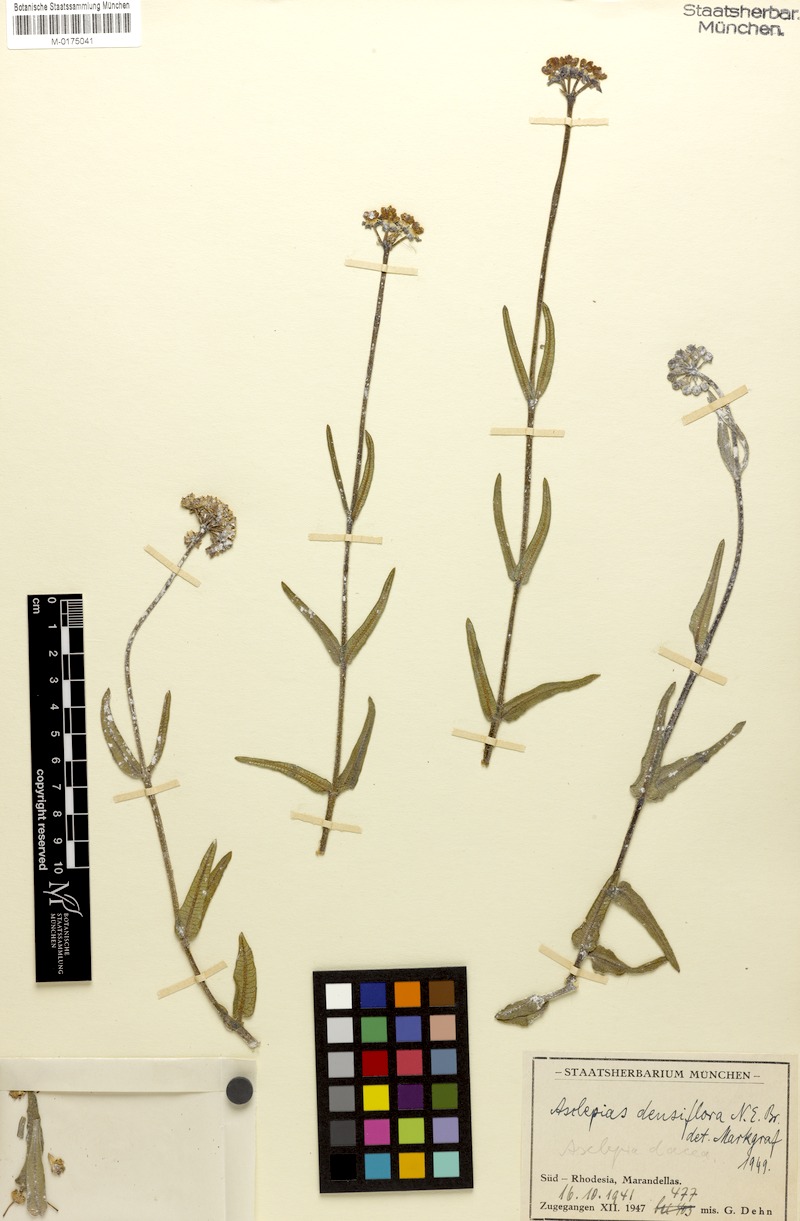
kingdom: Plantae
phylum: Tracheophyta
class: Magnoliopsida
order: Gentianales
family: Apocynaceae
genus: Asclepias
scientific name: Asclepias densiflora
